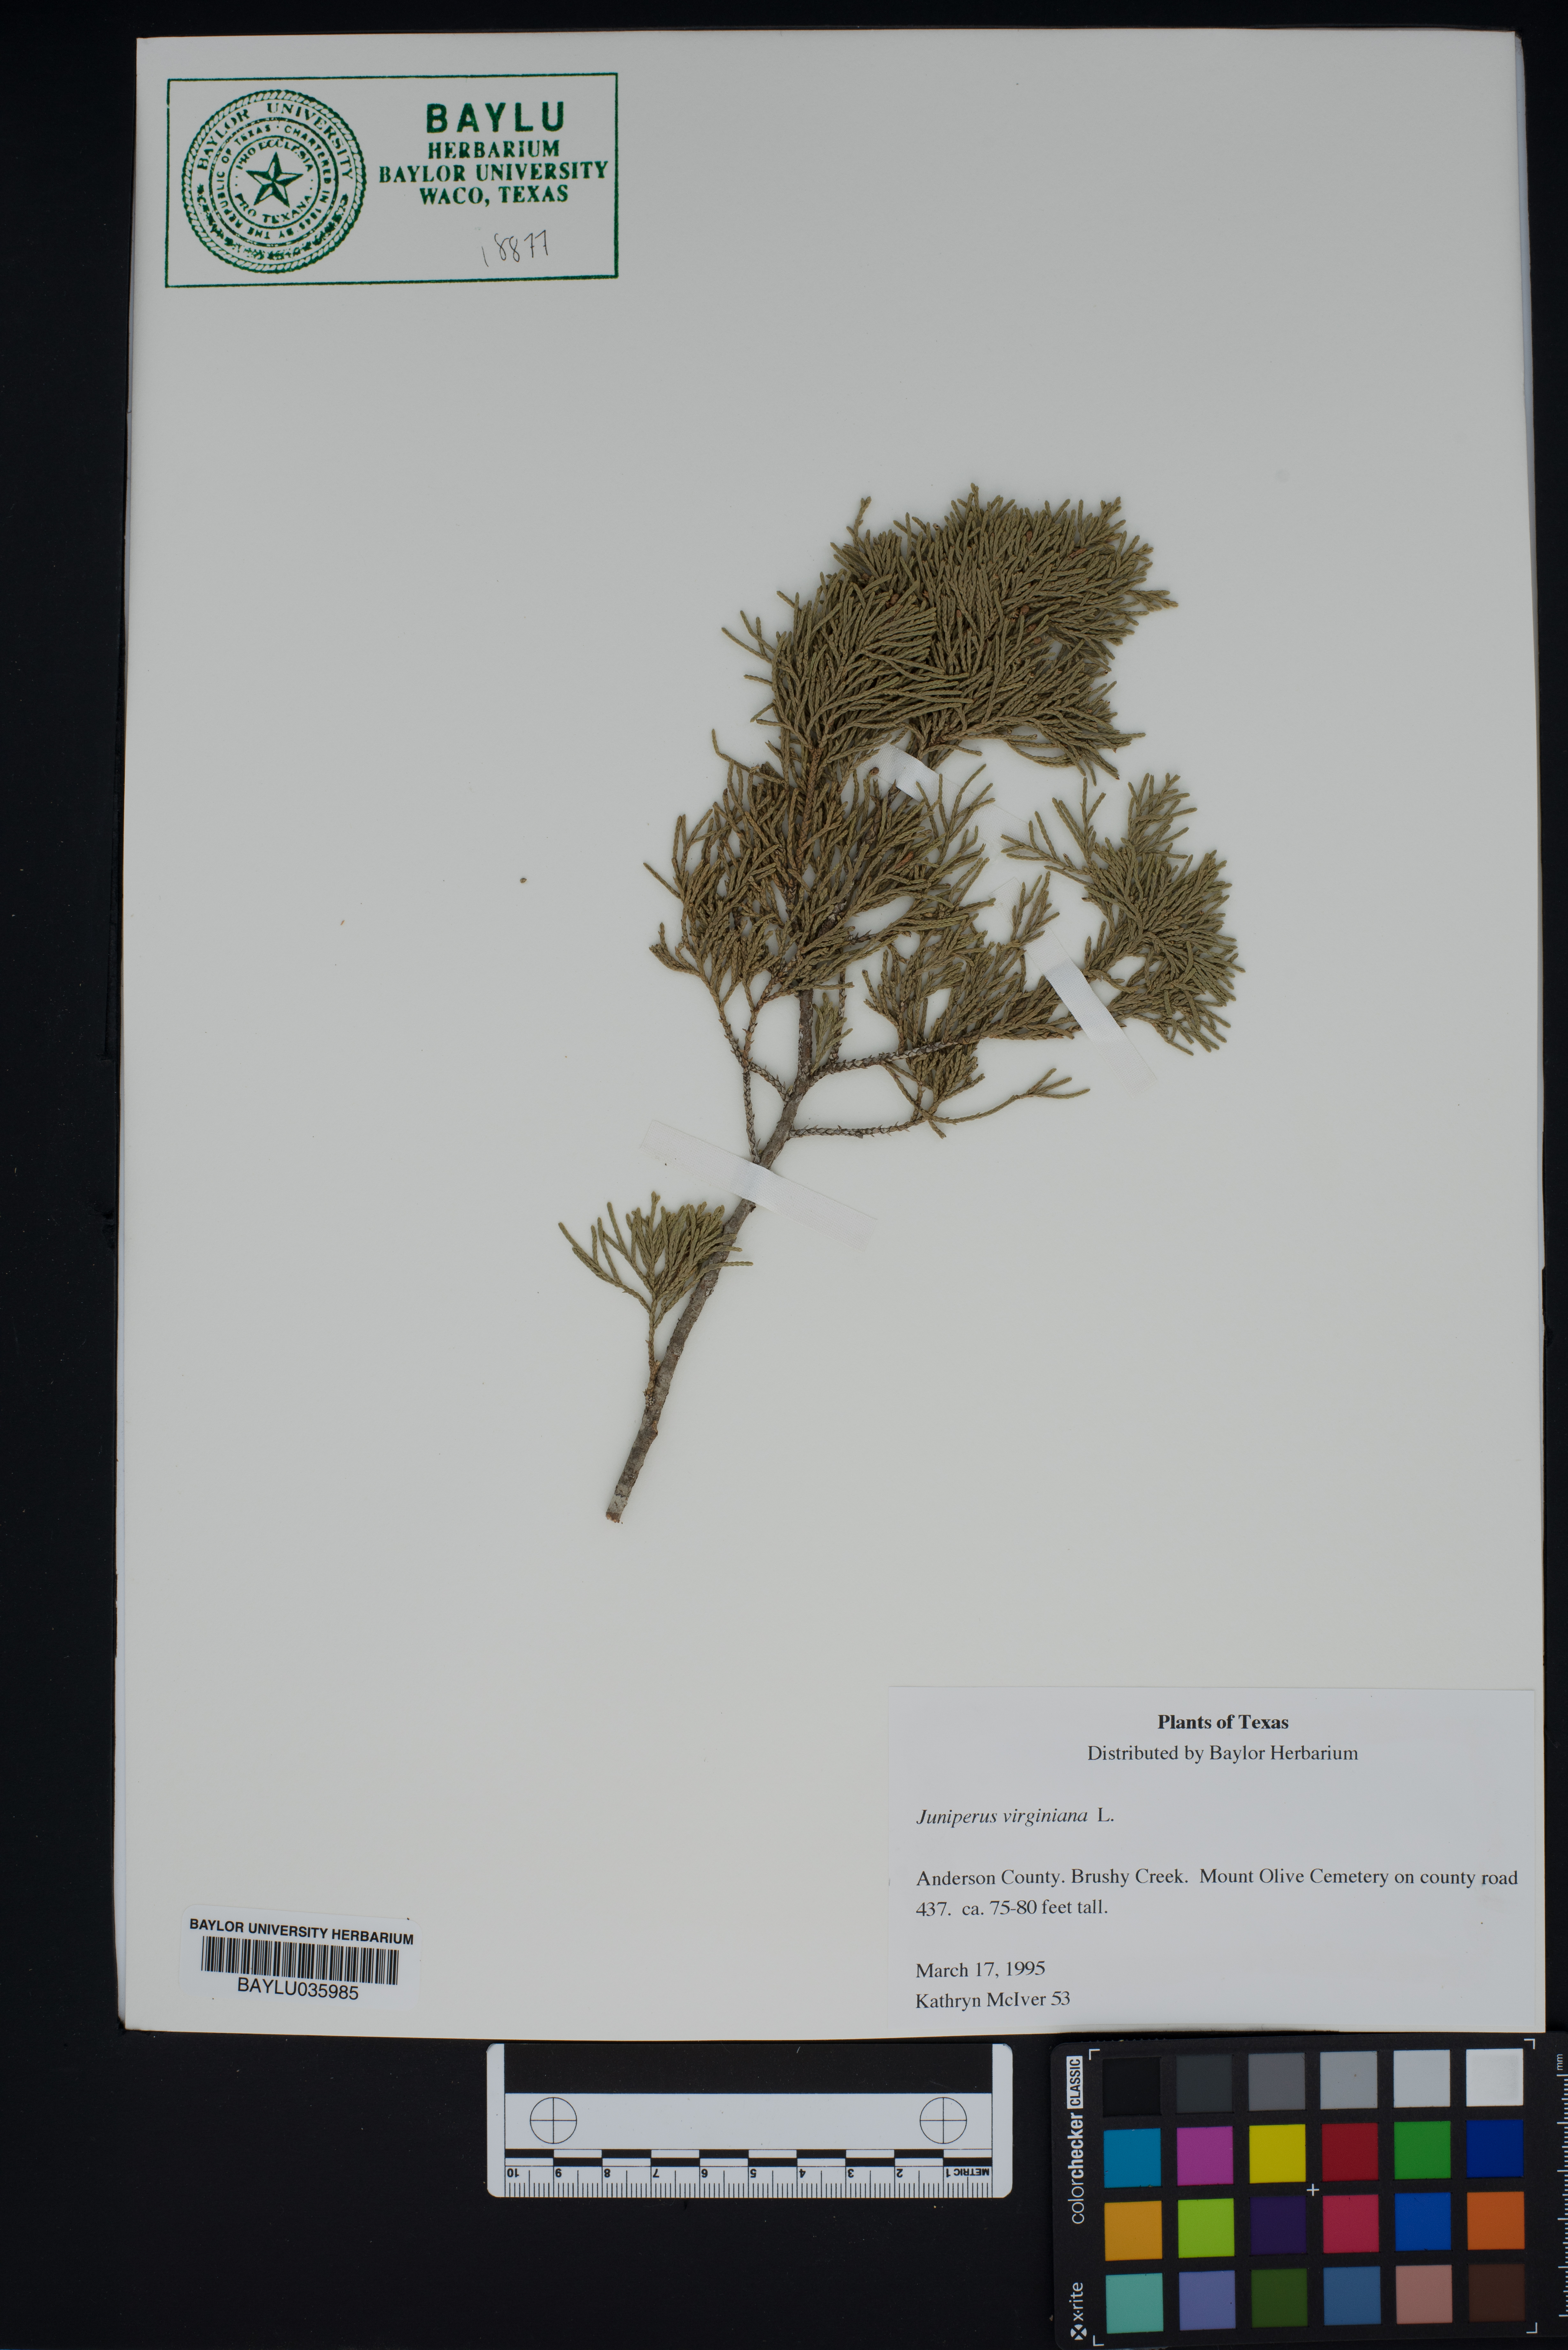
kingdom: Plantae
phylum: Tracheophyta
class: Pinopsida
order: Pinales
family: Cupressaceae
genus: Juniperus
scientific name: Juniperus virginiana
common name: Red juniper
